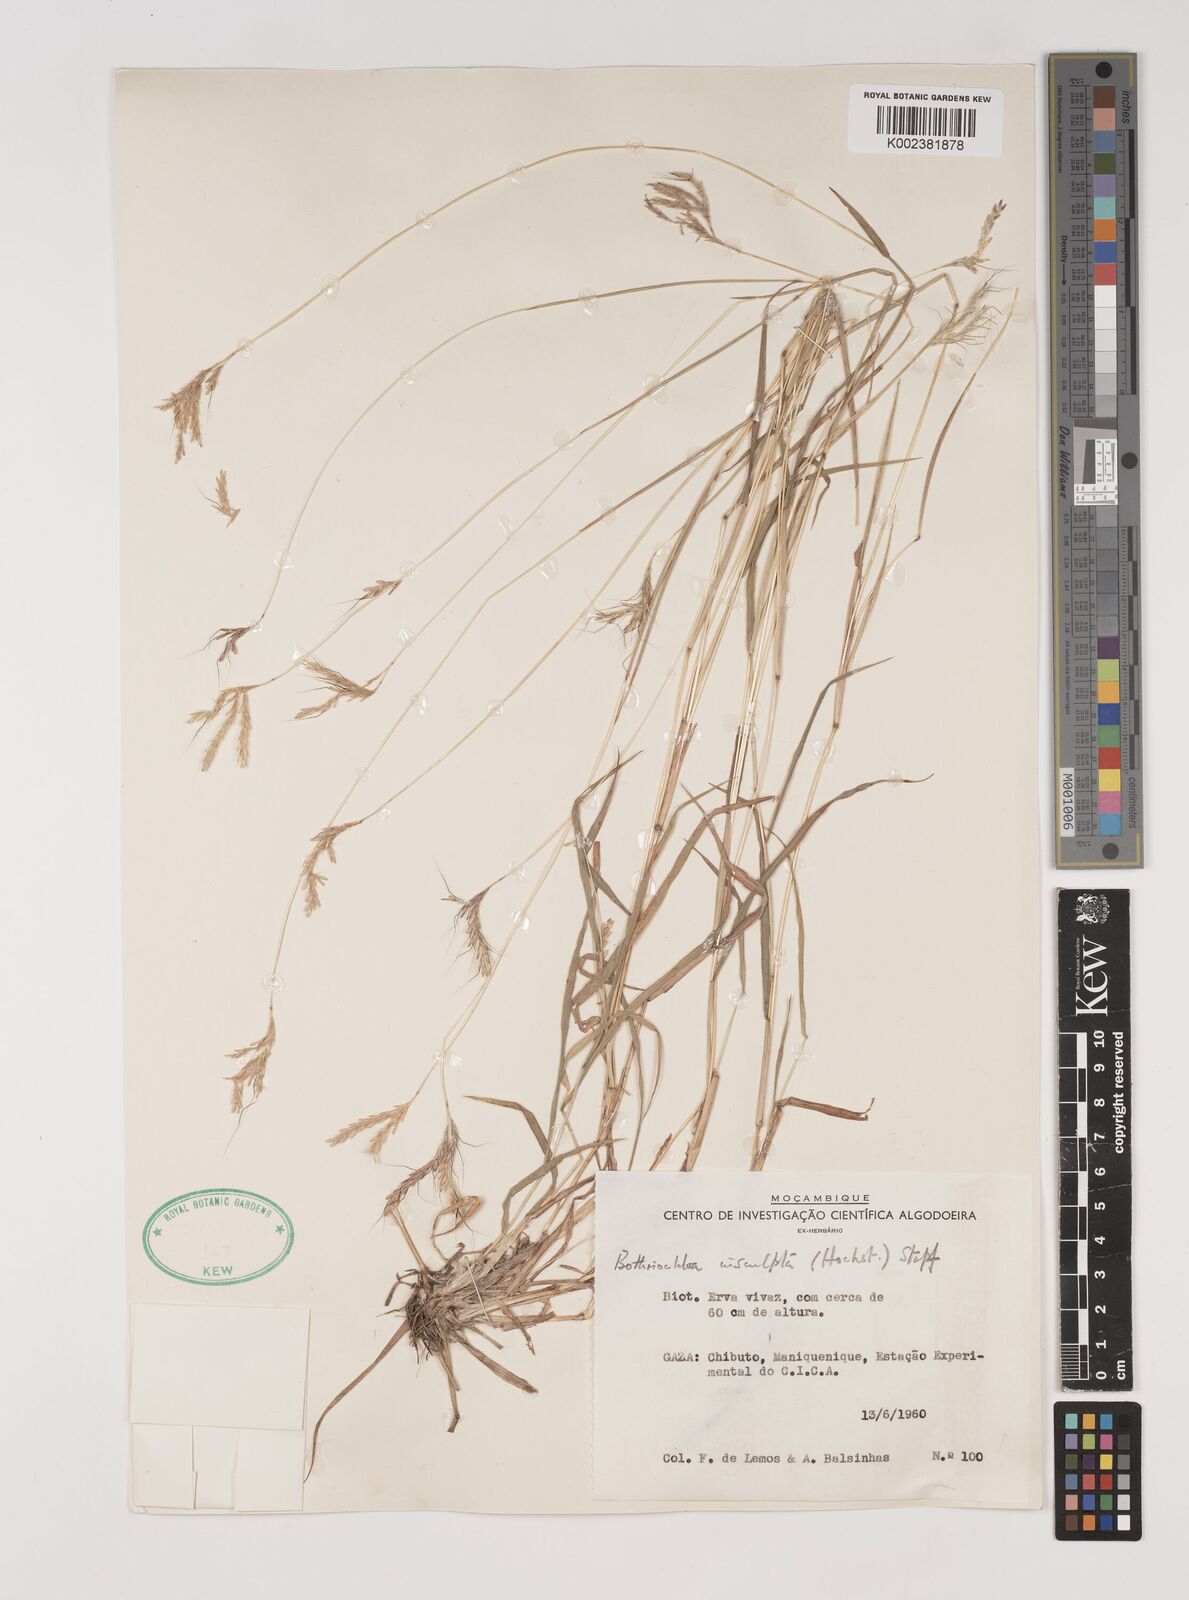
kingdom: Plantae
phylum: Tracheophyta
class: Liliopsida
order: Poales
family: Poaceae
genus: Bothriochloa
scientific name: Bothriochloa insculpta
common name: Creeping-bluegrass
